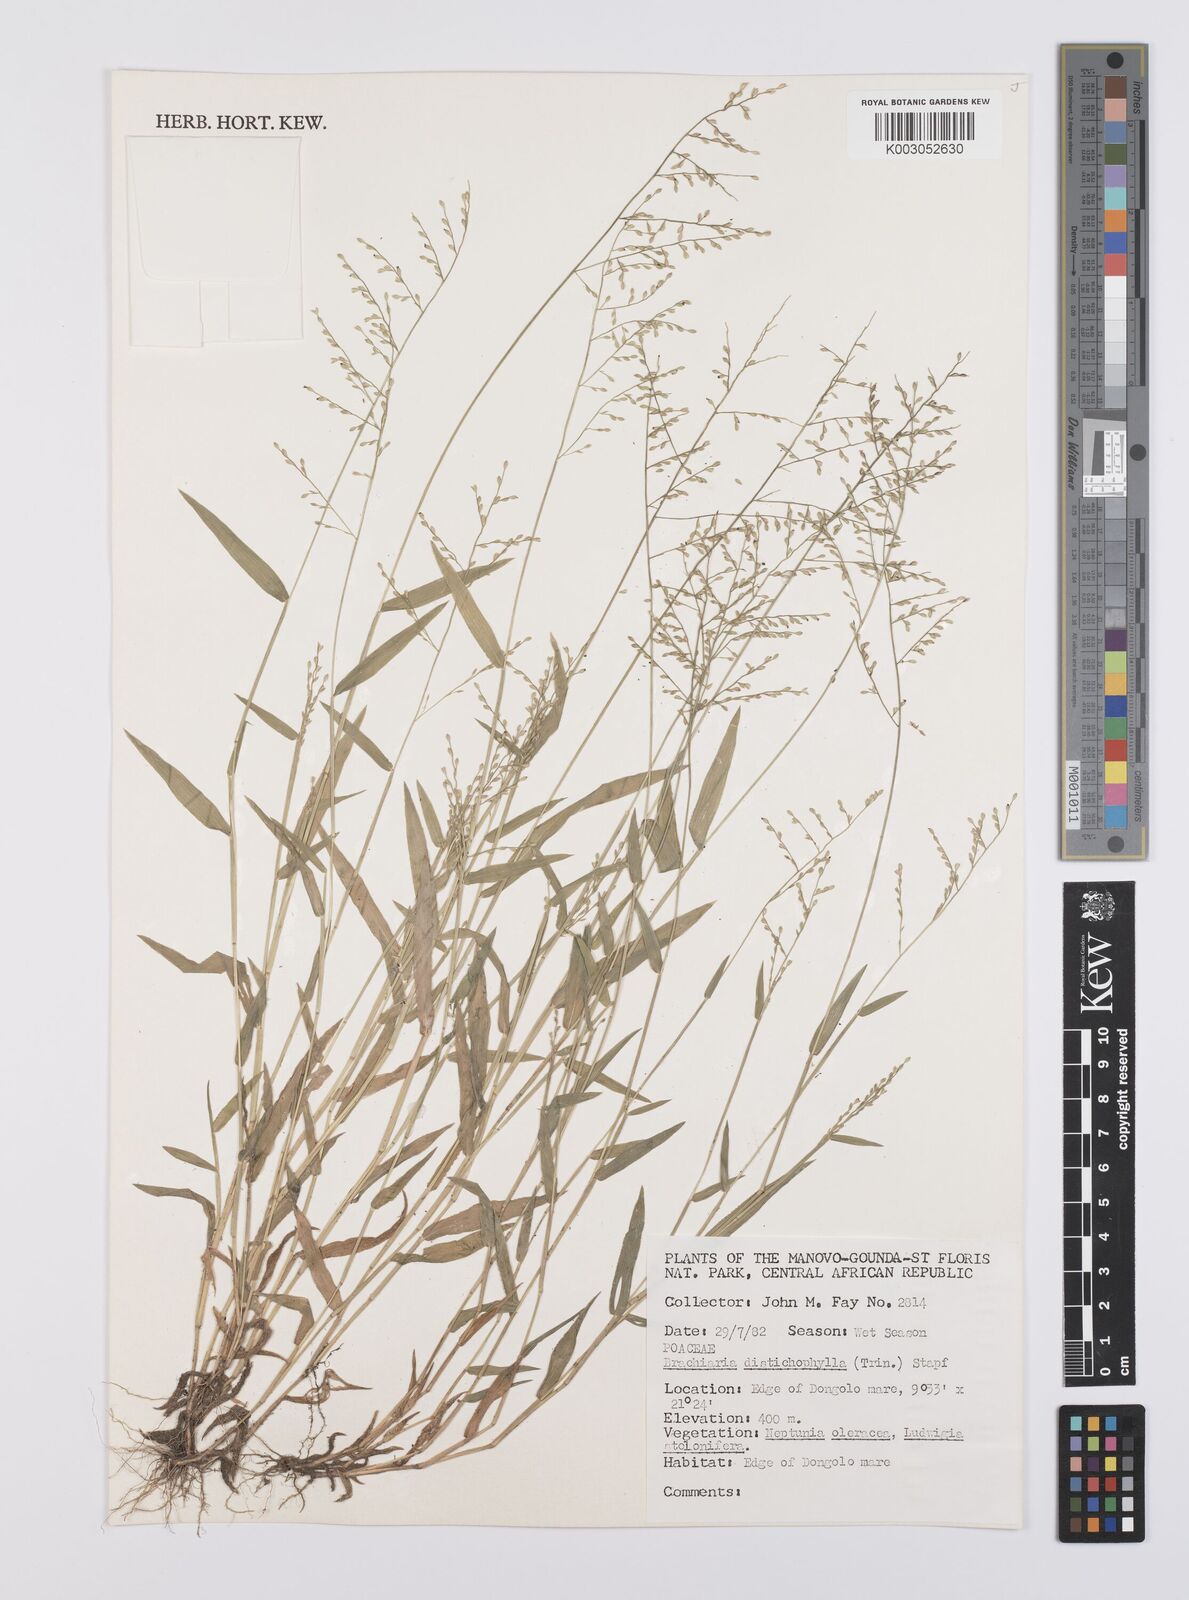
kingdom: Plantae
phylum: Tracheophyta
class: Liliopsida
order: Poales
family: Poaceae
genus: Urochloa
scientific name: Urochloa villosa
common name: Hairy signalgrass
